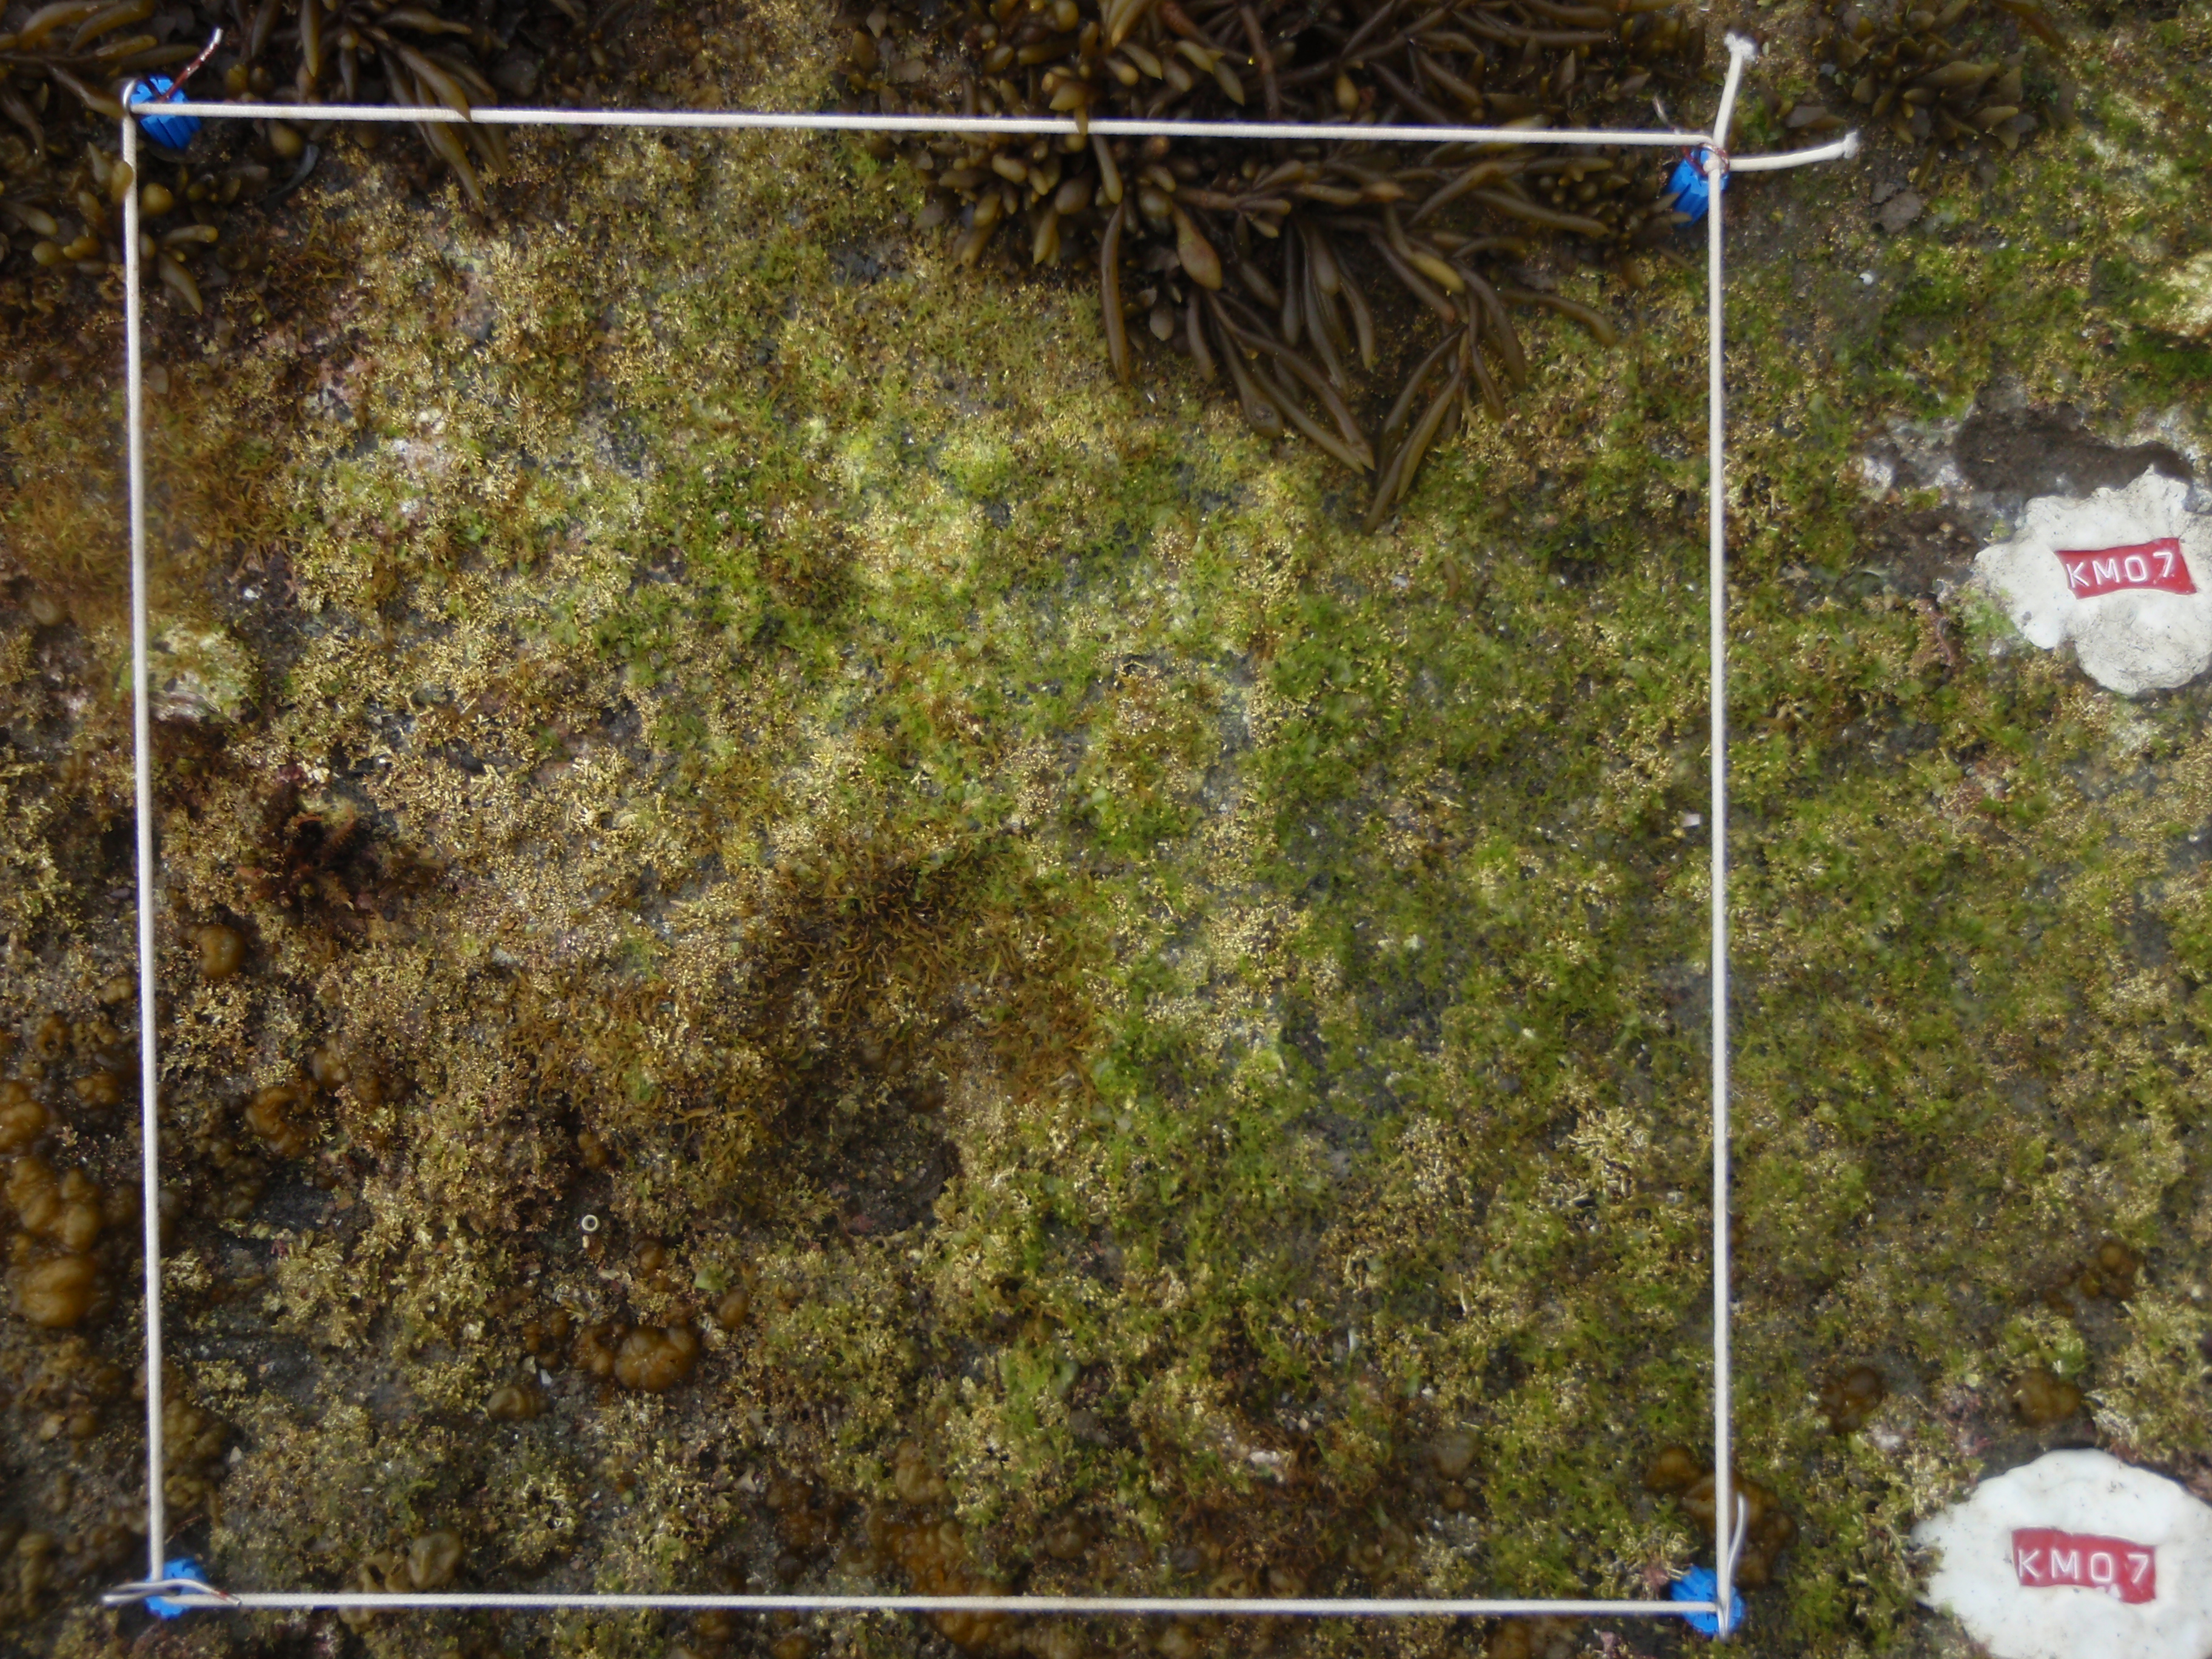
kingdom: Chromista
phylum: Ochrophyta
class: Phaeophyceae
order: Fucales
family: Sargassaceae
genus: Sargassum
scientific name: Sargassum fusiforme
